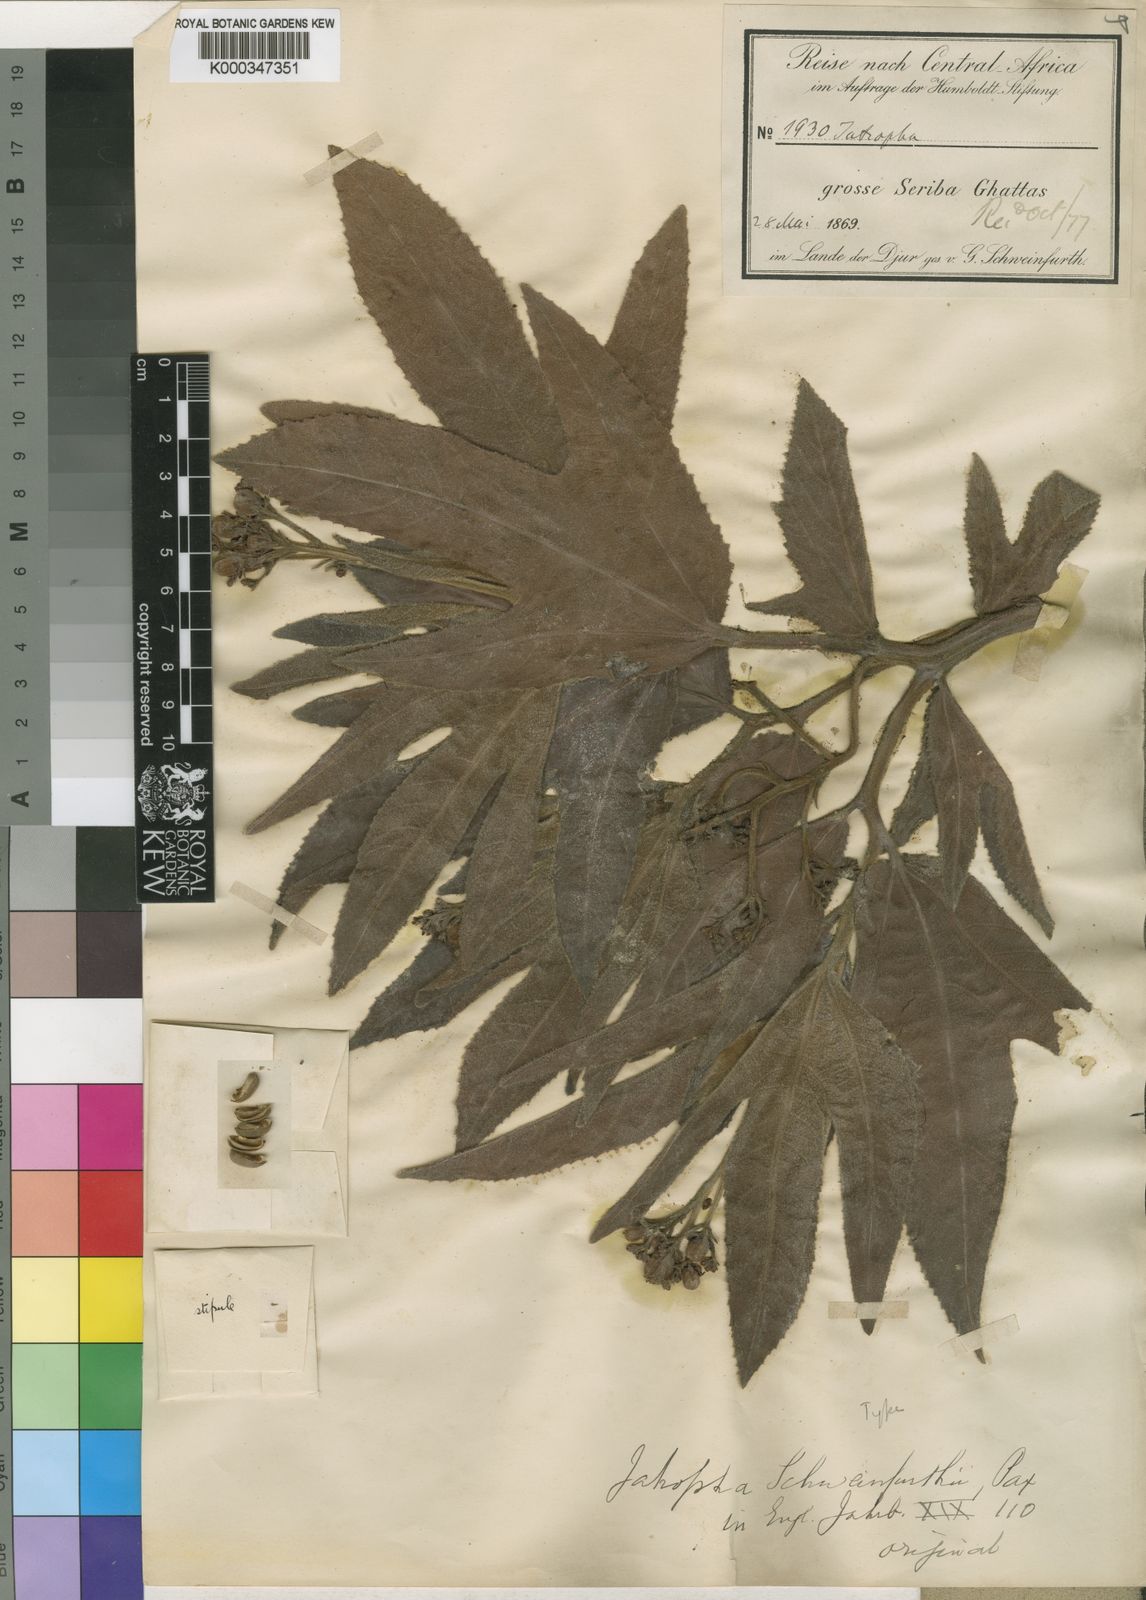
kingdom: Plantae
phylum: Tracheophyta
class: Magnoliopsida
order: Malpighiales
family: Euphorbiaceae
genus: Jatropha
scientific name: Jatropha schweinfurthii
